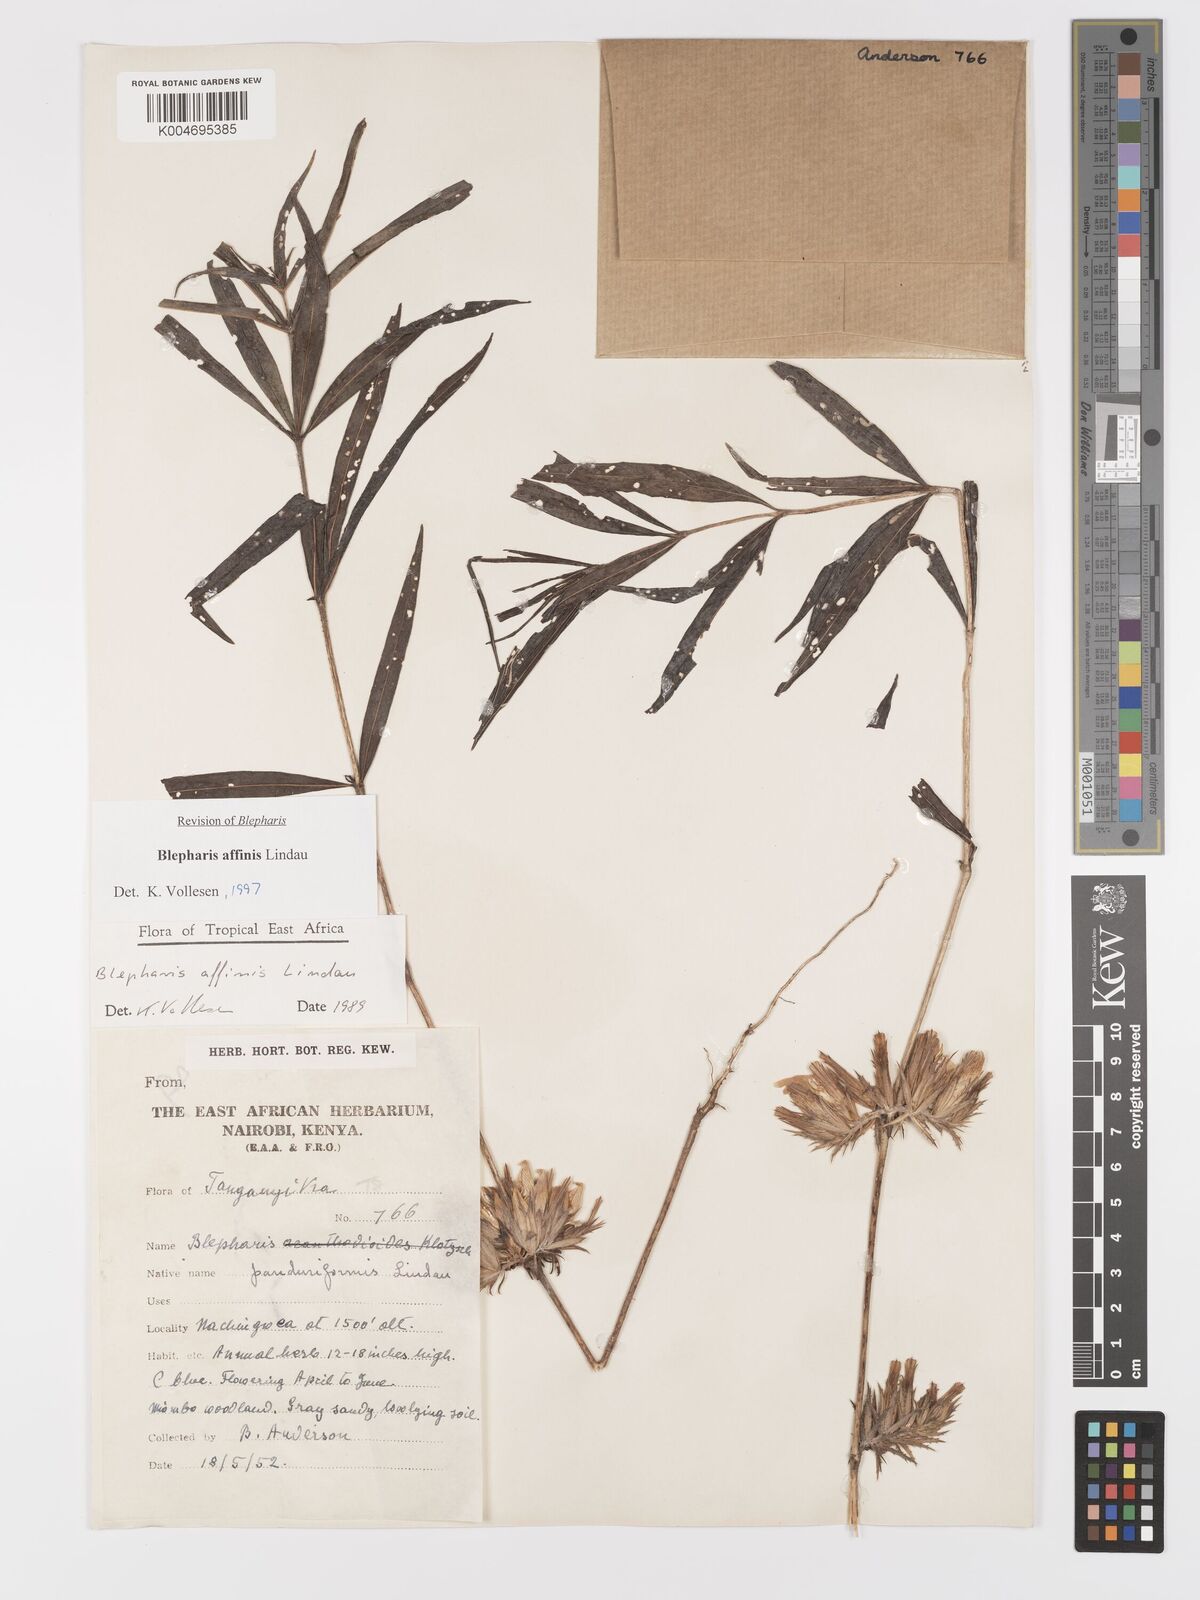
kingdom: Plantae
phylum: Tracheophyta
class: Magnoliopsida
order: Lamiales
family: Acanthaceae
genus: Blepharis
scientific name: Blepharis affinis
